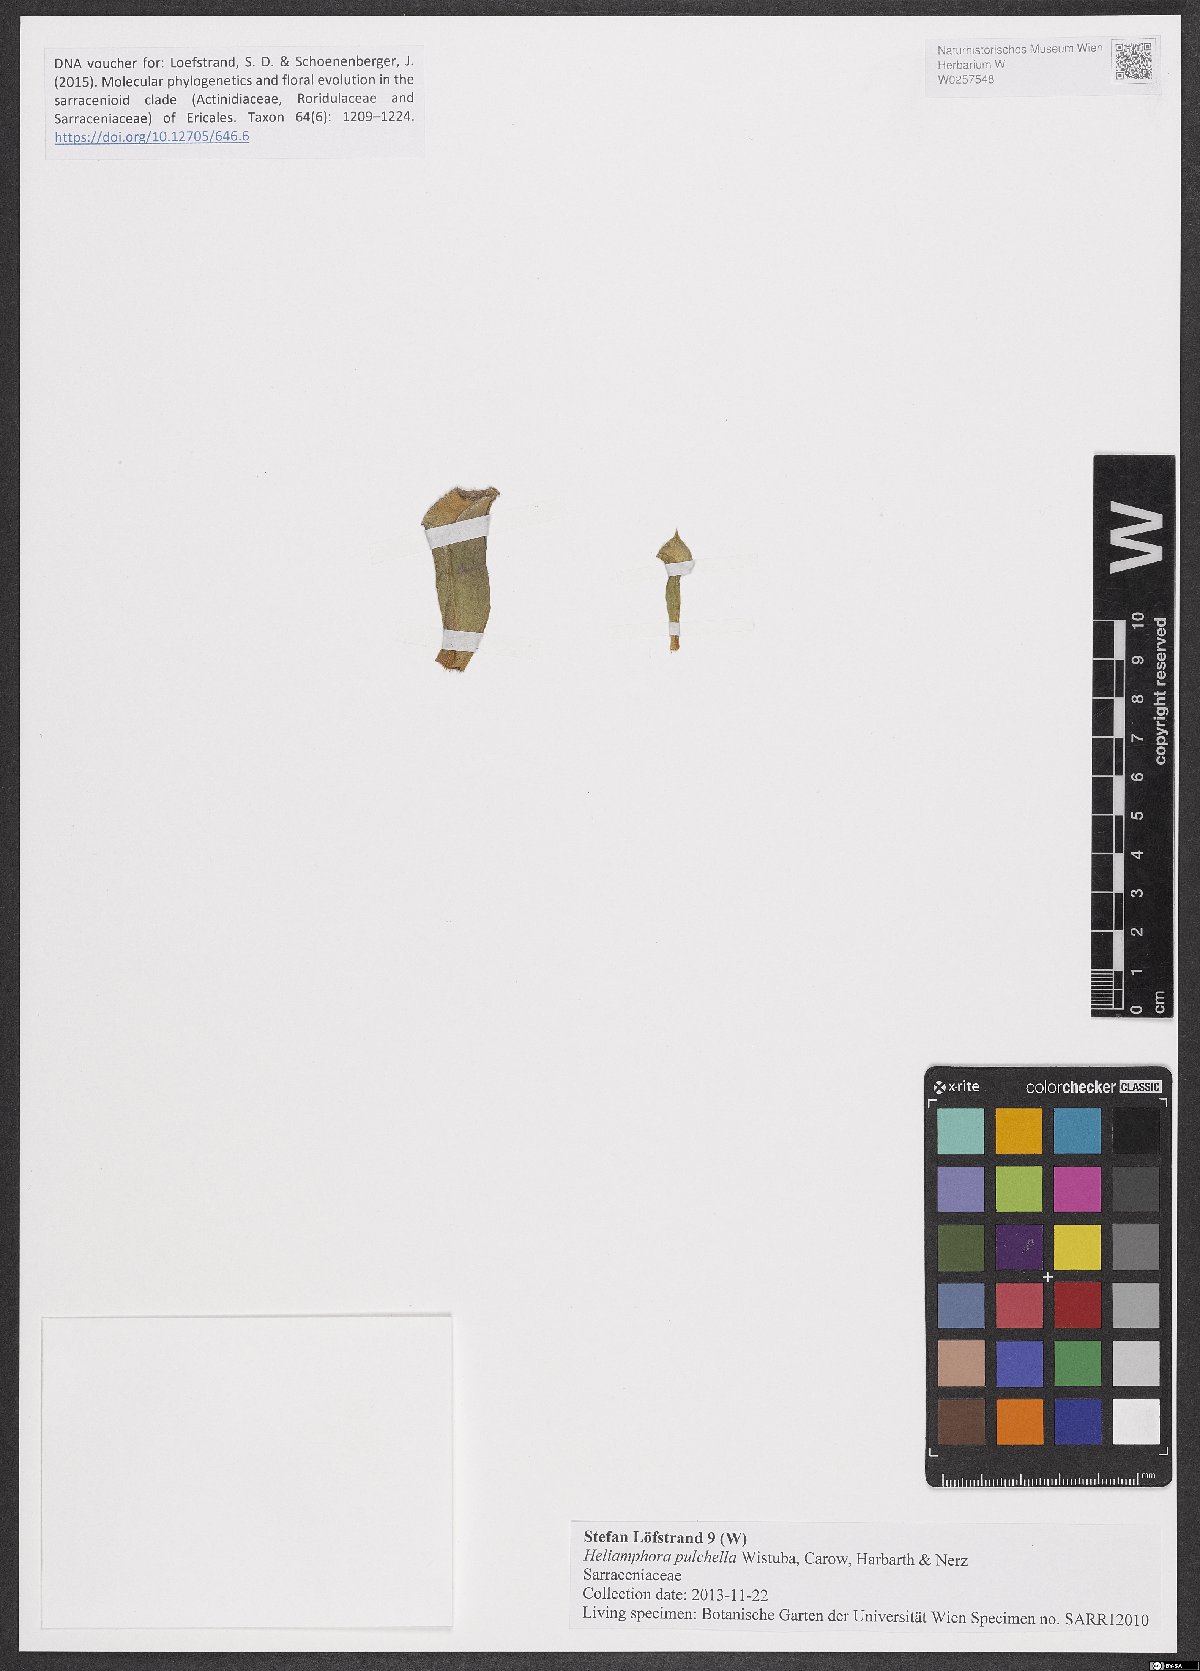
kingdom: Plantae
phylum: Tracheophyta
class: Magnoliopsida
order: Ericales
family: Sarraceniaceae
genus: Heliamphora
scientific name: Heliamphora pulchella
